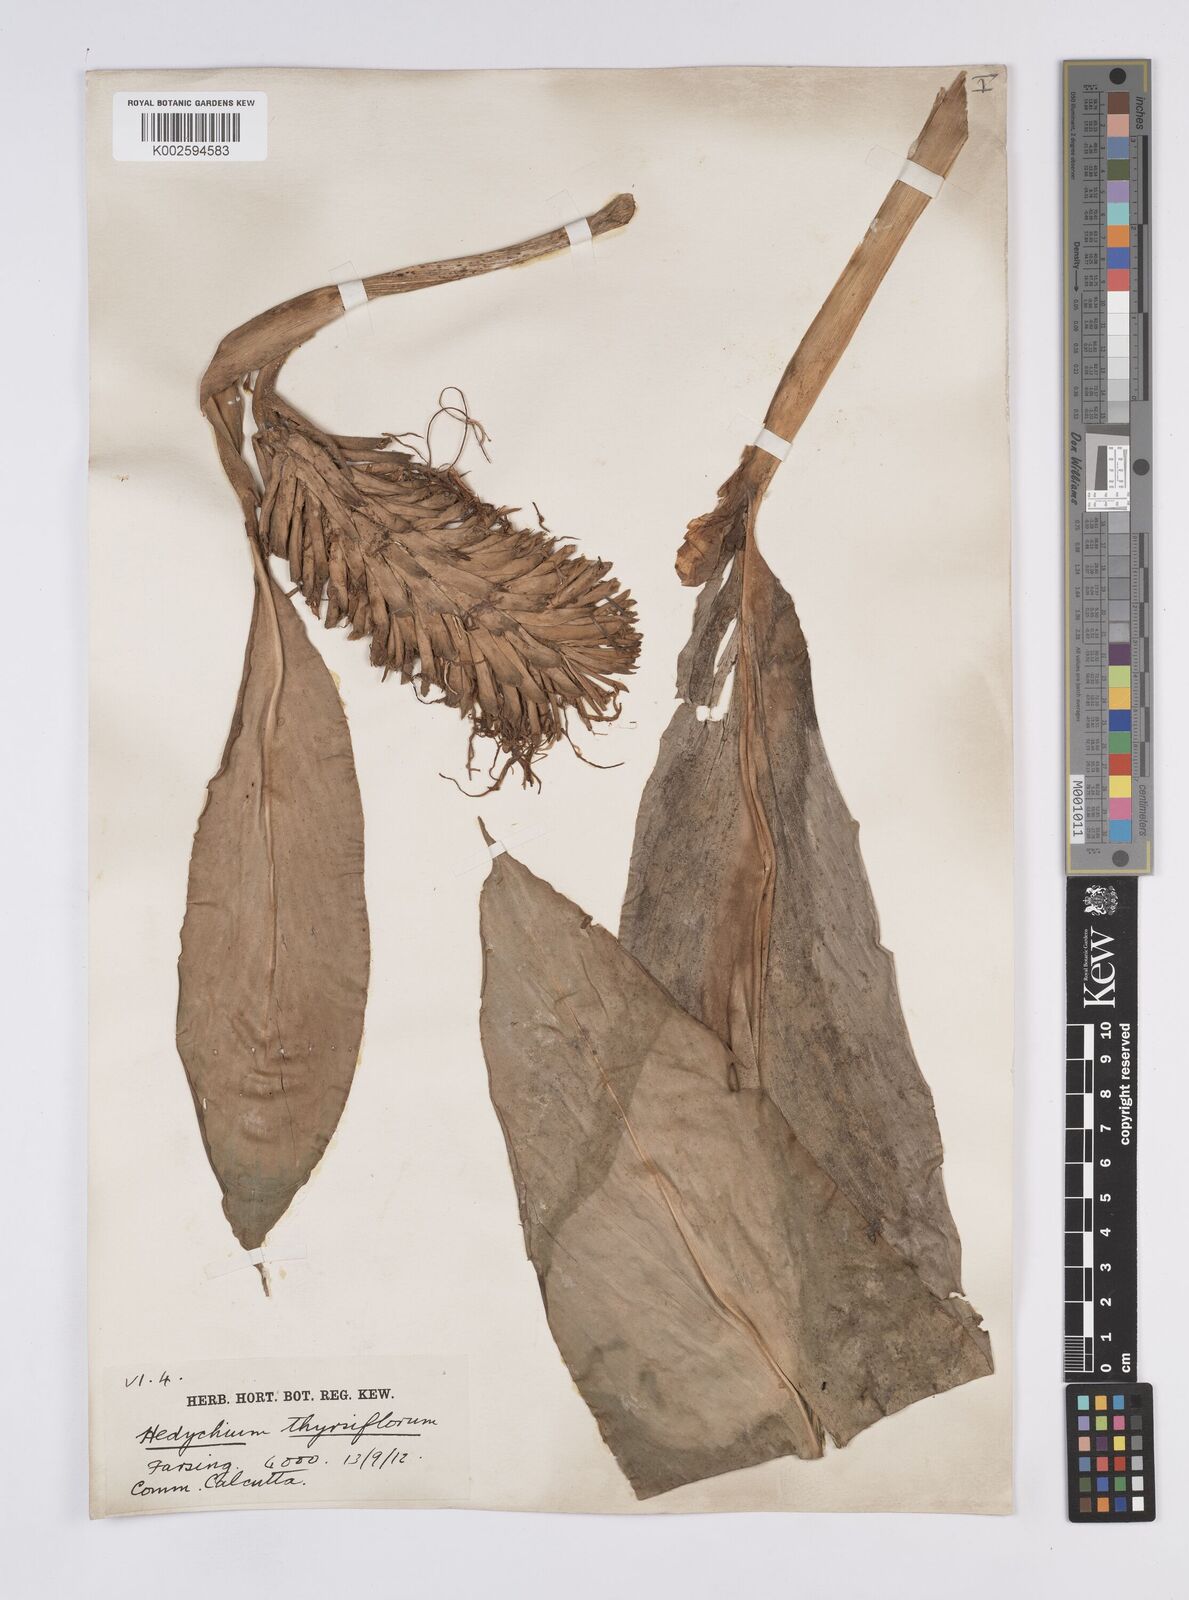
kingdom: Plantae
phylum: Tracheophyta
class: Liliopsida
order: Zingiberales
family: Zingiberaceae
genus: Hedychium
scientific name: Hedychium
